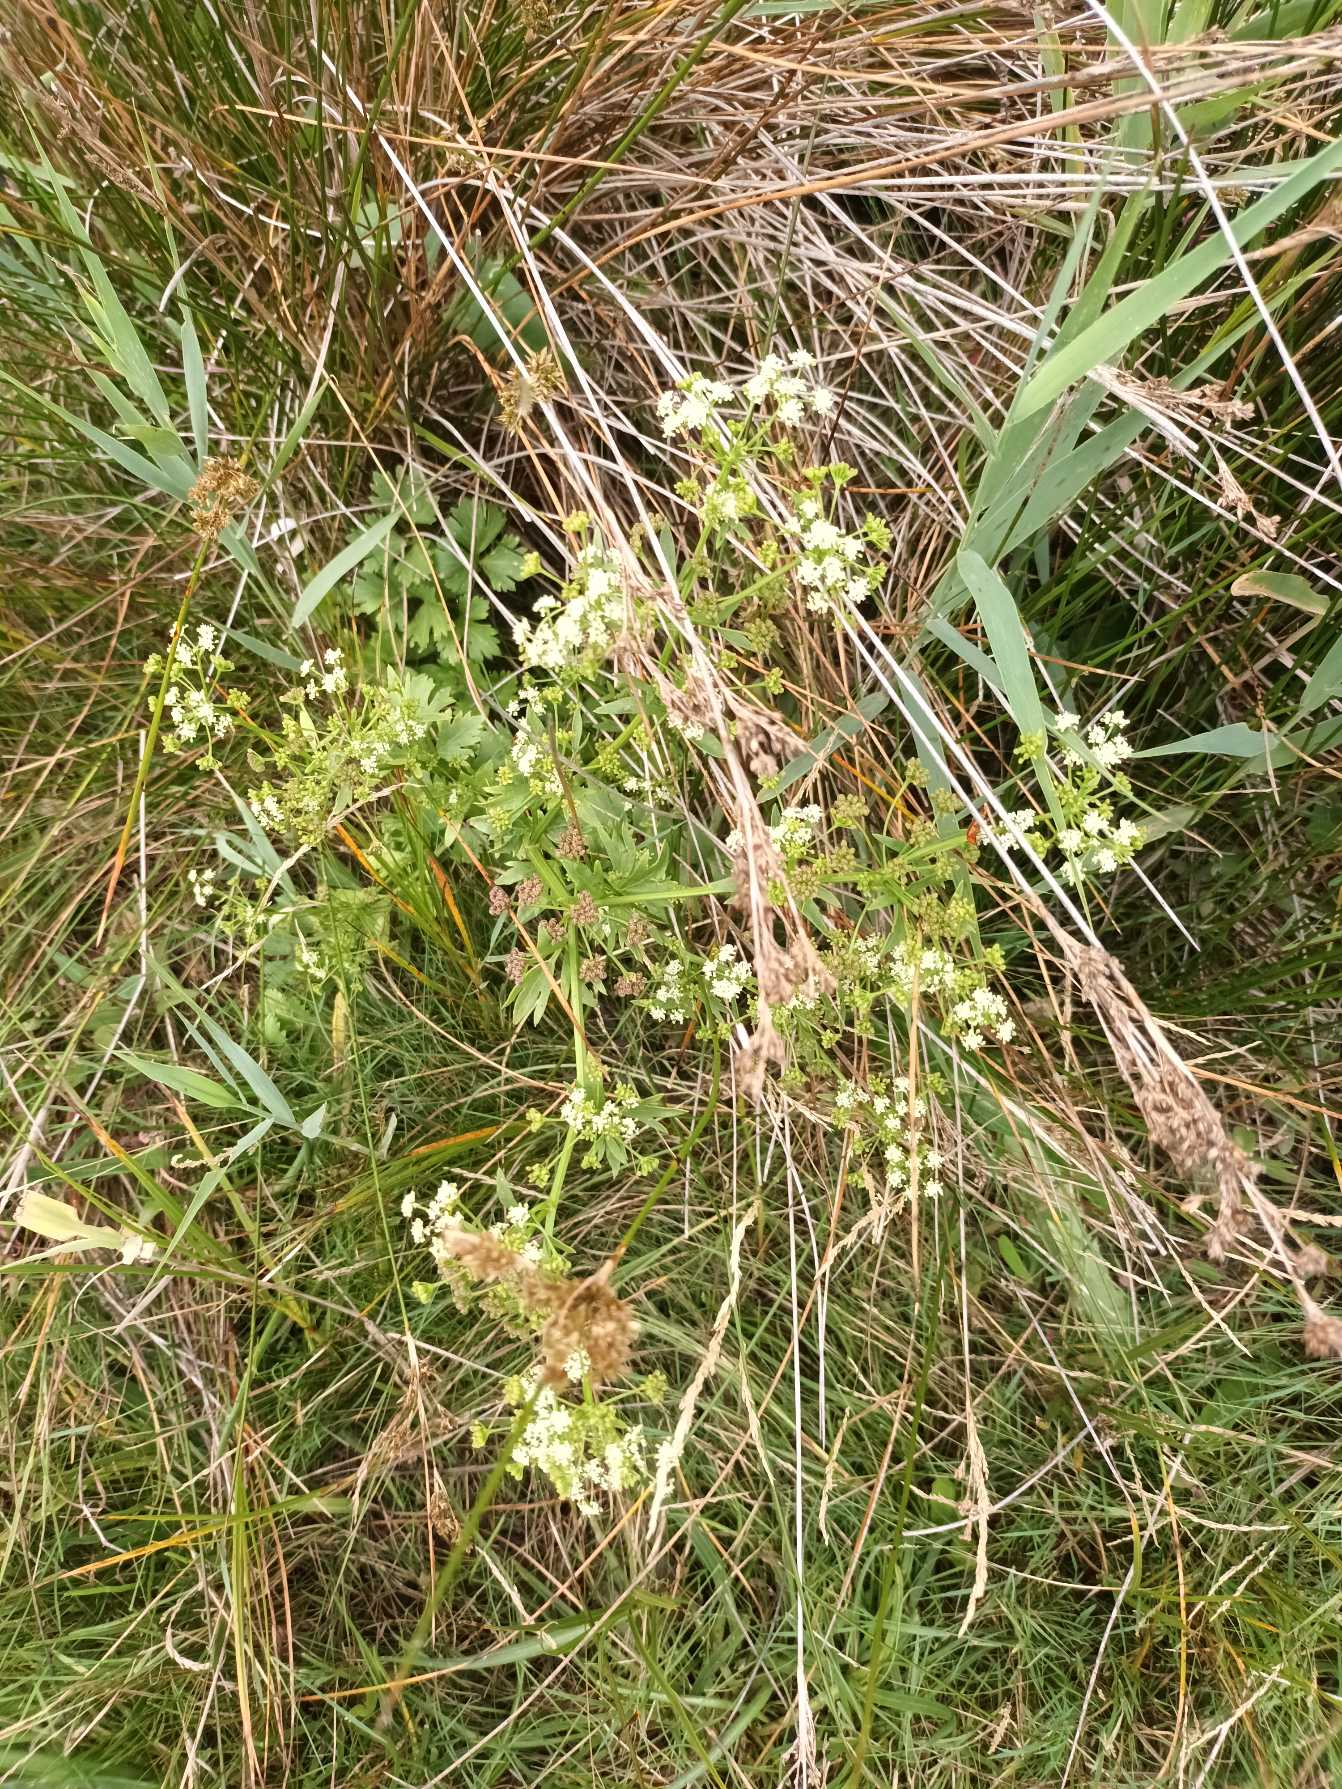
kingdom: Plantae
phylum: Tracheophyta
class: Magnoliopsida
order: Apiales
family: Apiaceae
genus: Apium
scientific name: Apium graveolens
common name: Vild selleri
